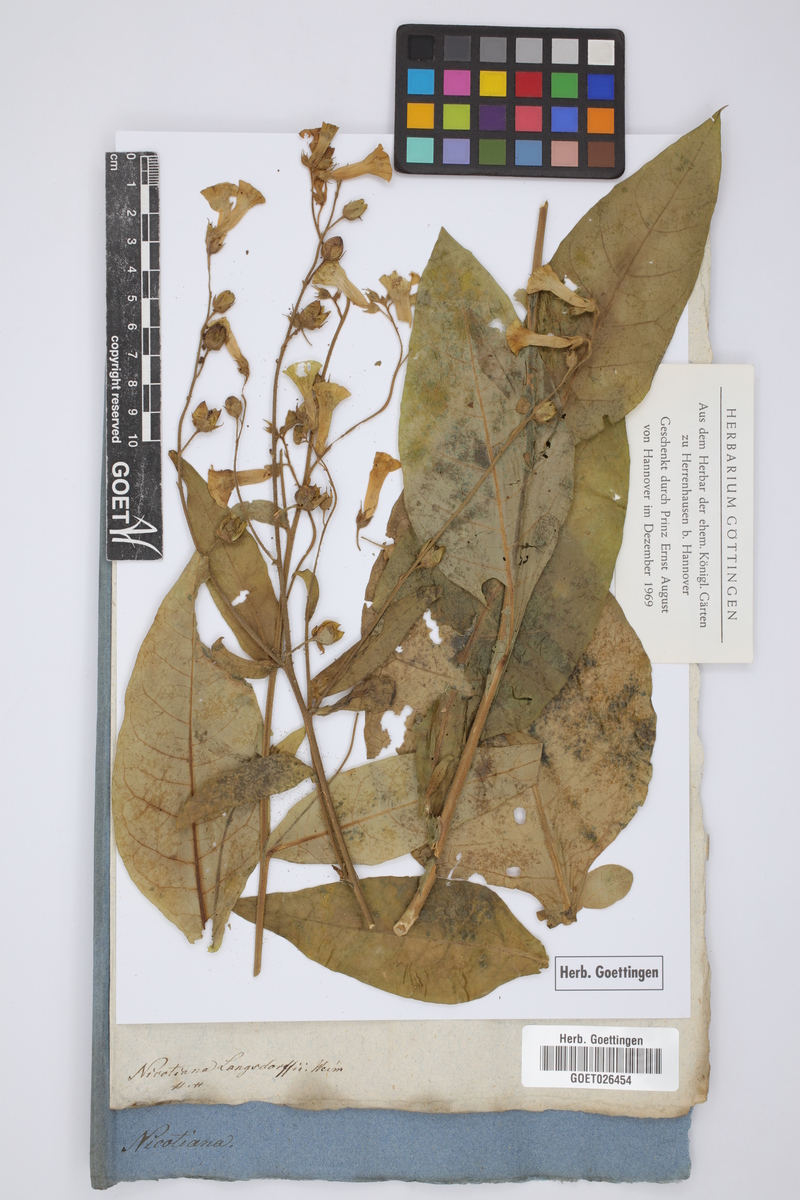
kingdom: Plantae
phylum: Tracheophyta
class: Magnoliopsida
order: Solanales
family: Solanaceae
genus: Nicotiana
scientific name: Nicotiana langsdorffii
